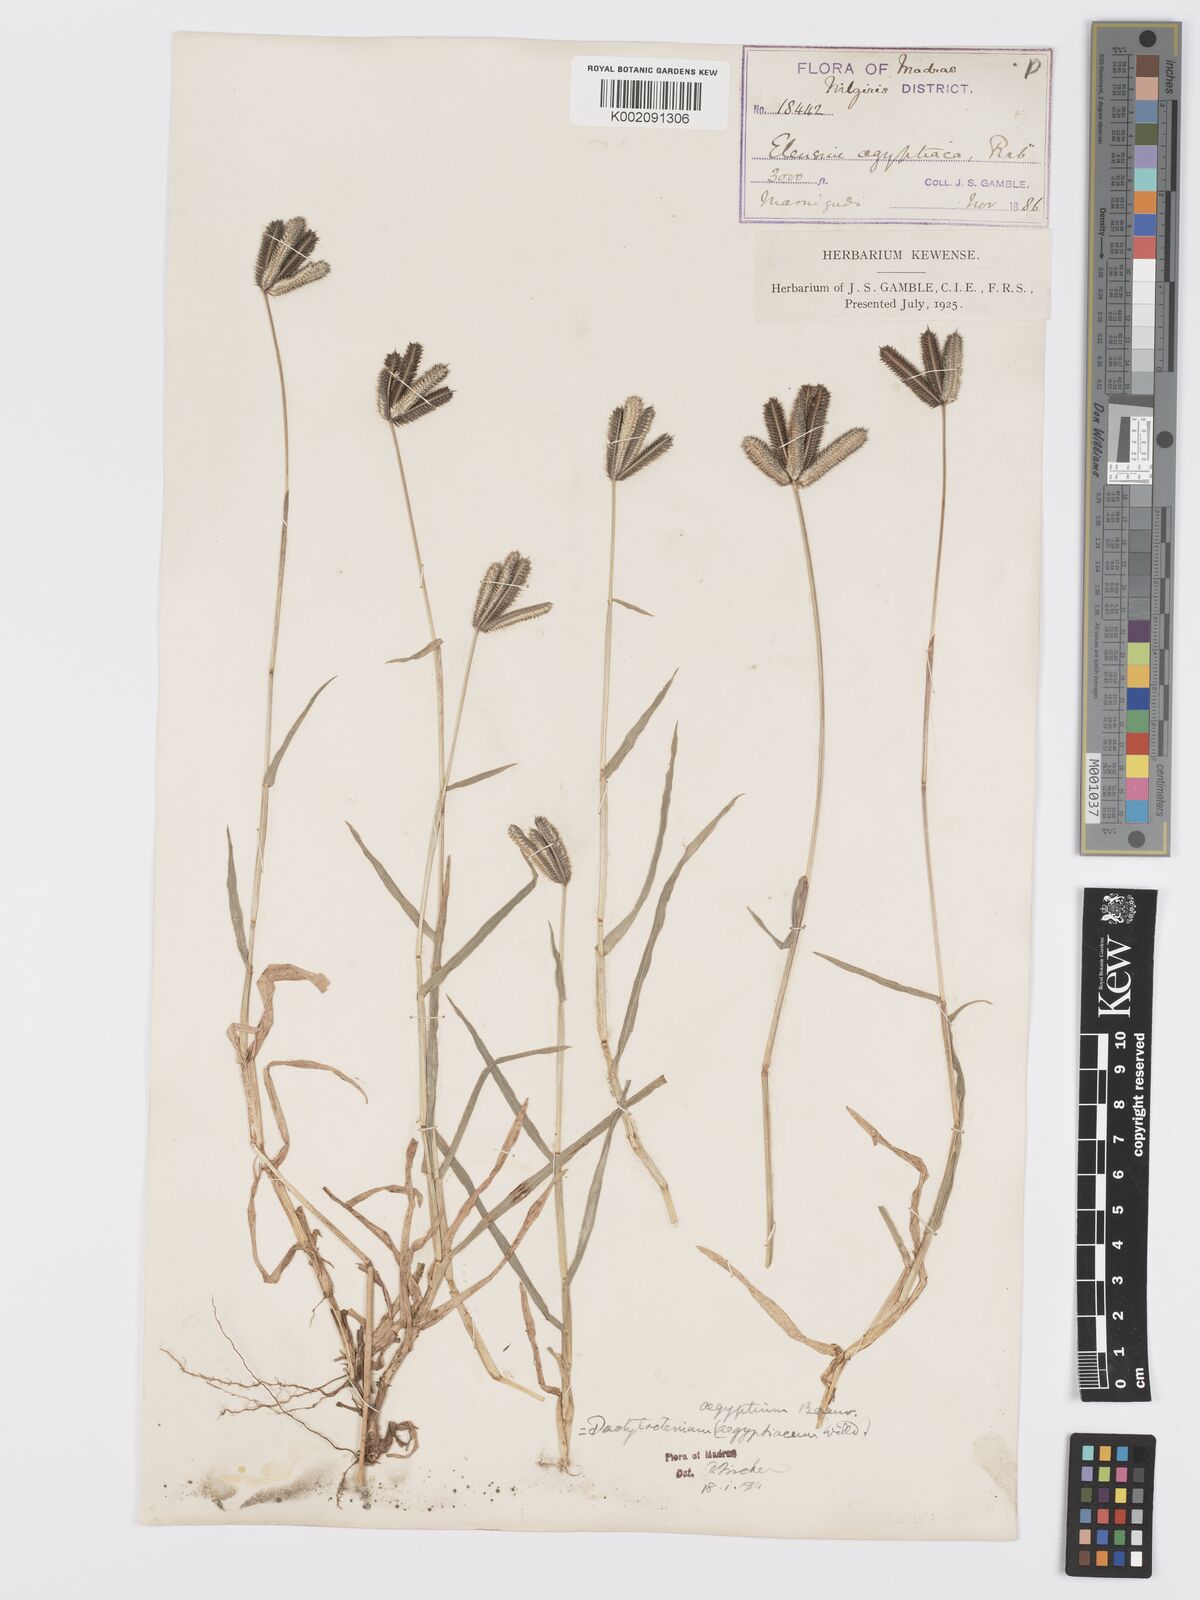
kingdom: Plantae
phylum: Tracheophyta
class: Liliopsida
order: Poales
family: Poaceae
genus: Dactyloctenium
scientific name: Dactyloctenium aegyptium
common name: Egyptian grass
